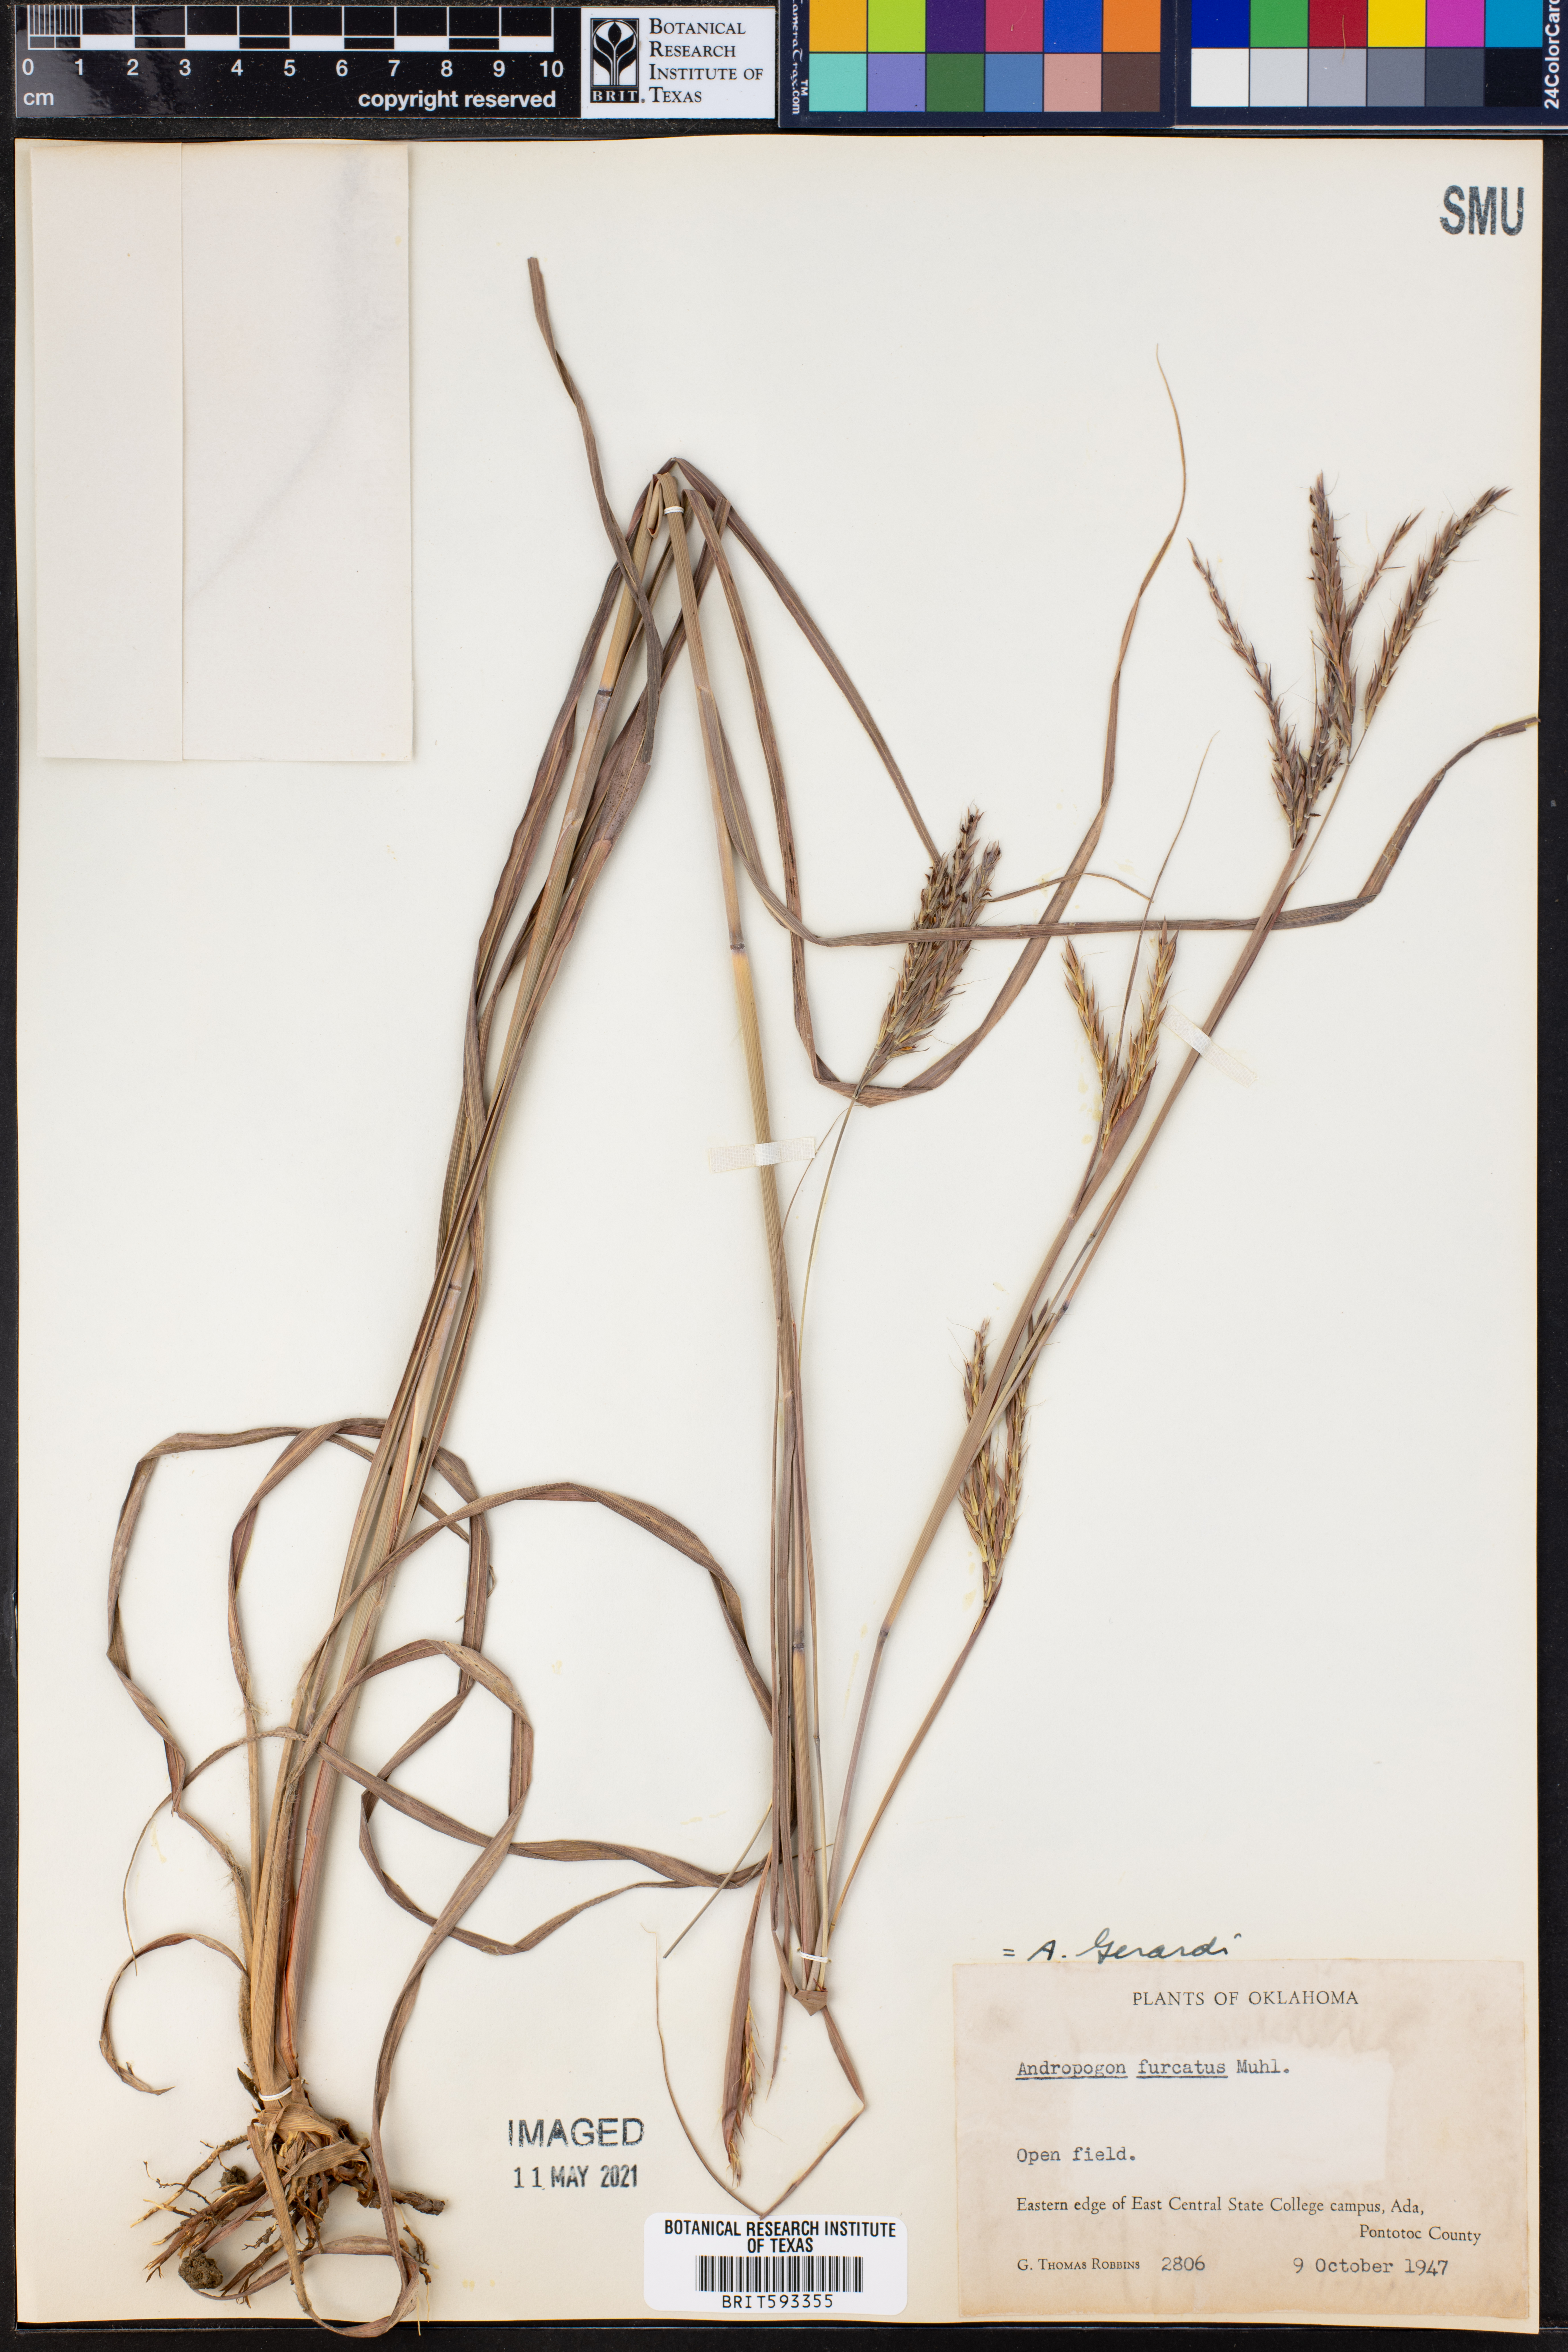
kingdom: Plantae
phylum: Tracheophyta
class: Liliopsida
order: Poales
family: Poaceae
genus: Andropogon
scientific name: Andropogon gerardi
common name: Big bluestem
